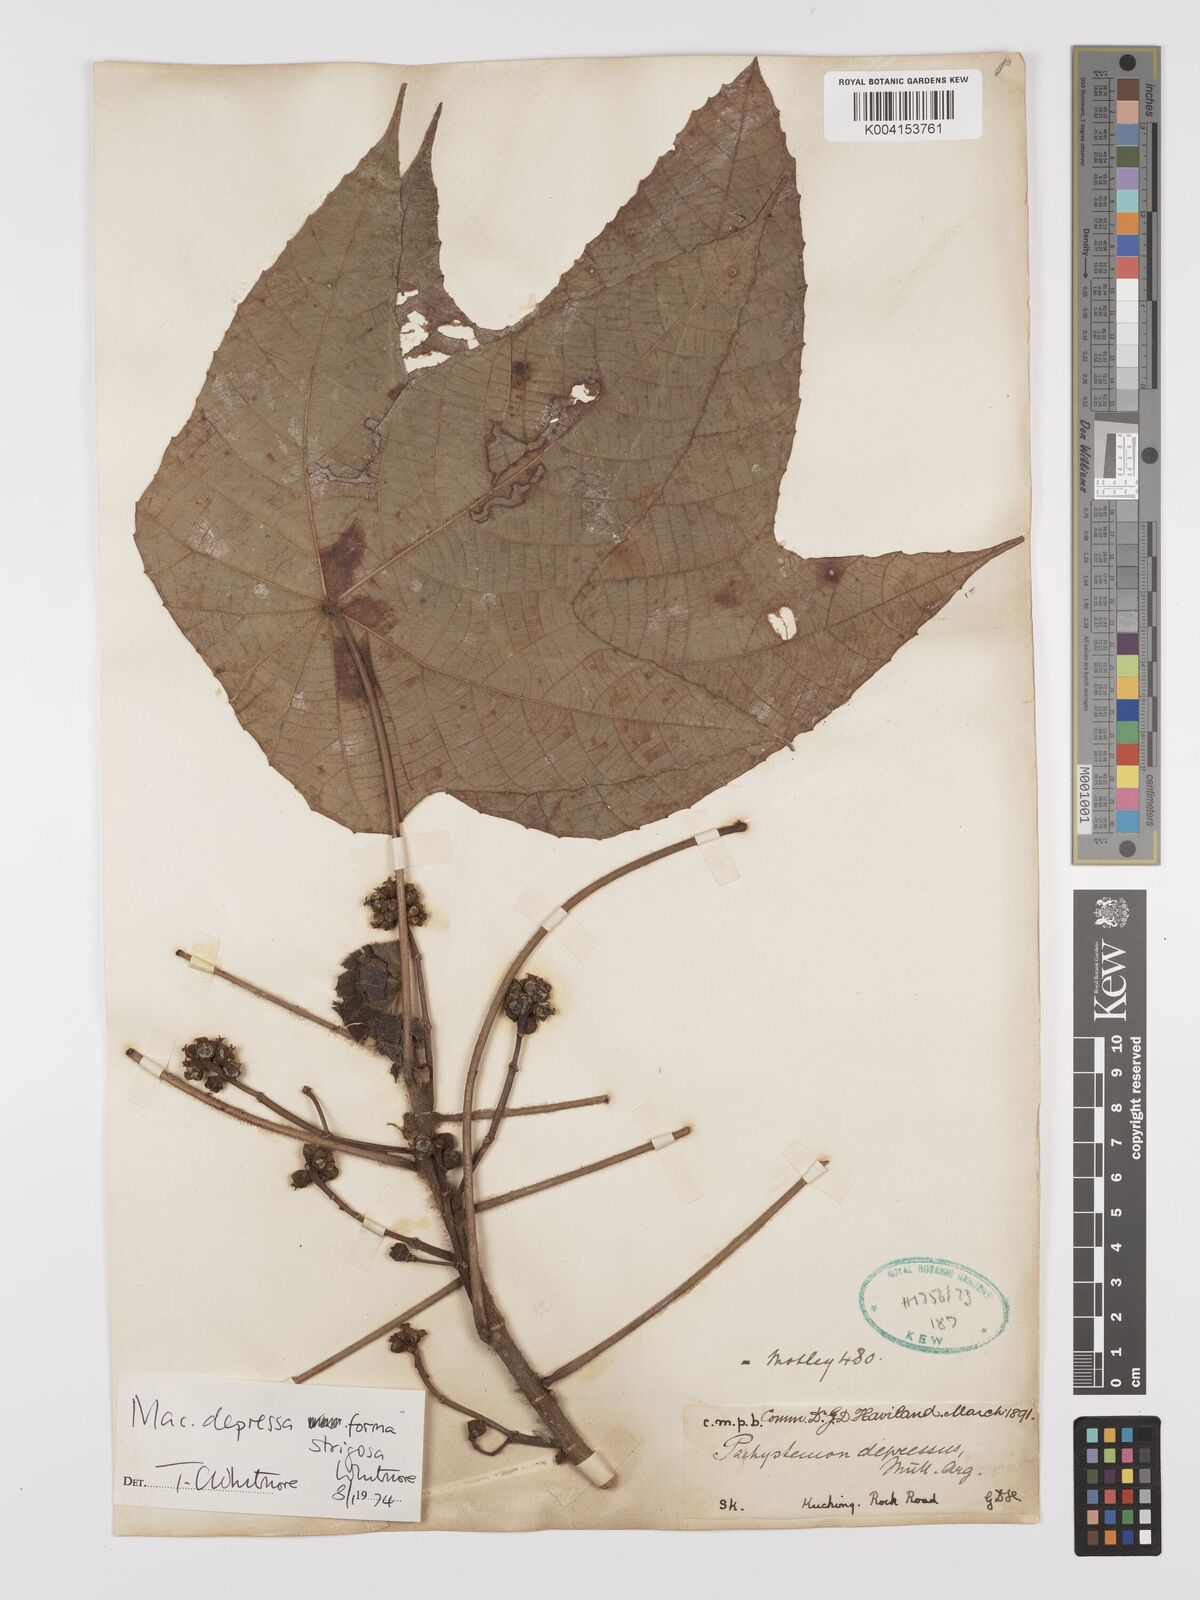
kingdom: Plantae
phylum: Tracheophyta
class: Magnoliopsida
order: Malpighiales
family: Euphorbiaceae
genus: Macaranga
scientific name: Macaranga depressa
